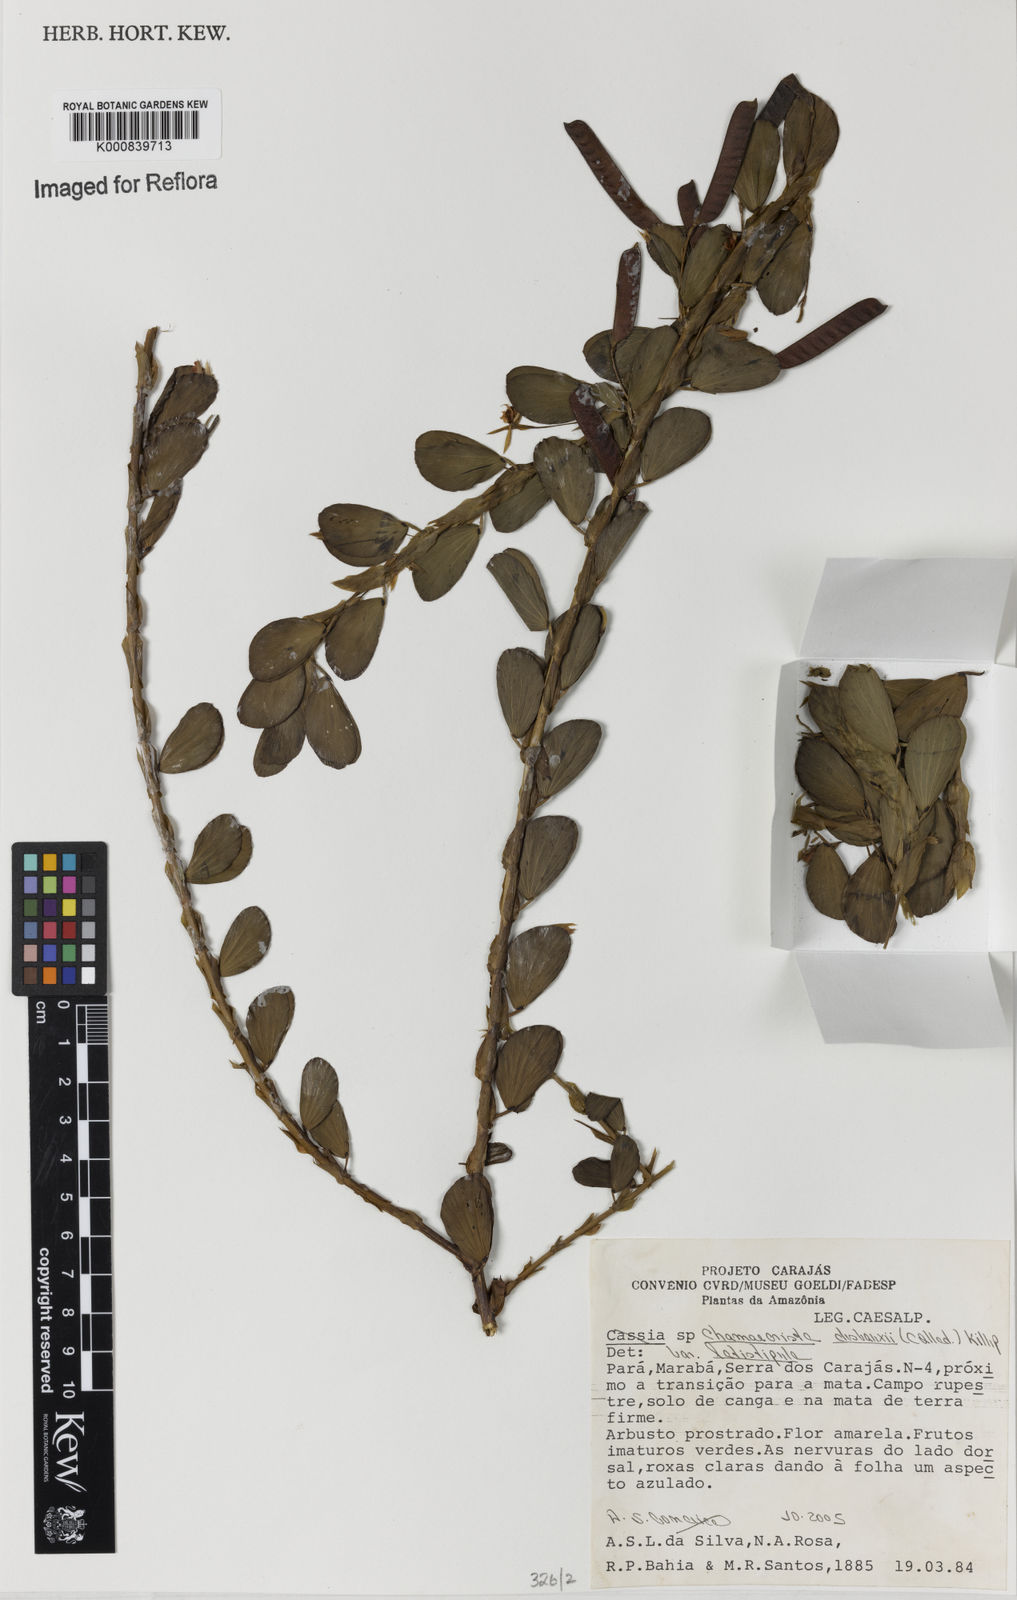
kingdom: Plantae
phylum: Tracheophyta
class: Magnoliopsida
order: Fabales
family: Fabaceae
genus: Chamaecrista
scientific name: Chamaecrista desvauxii
